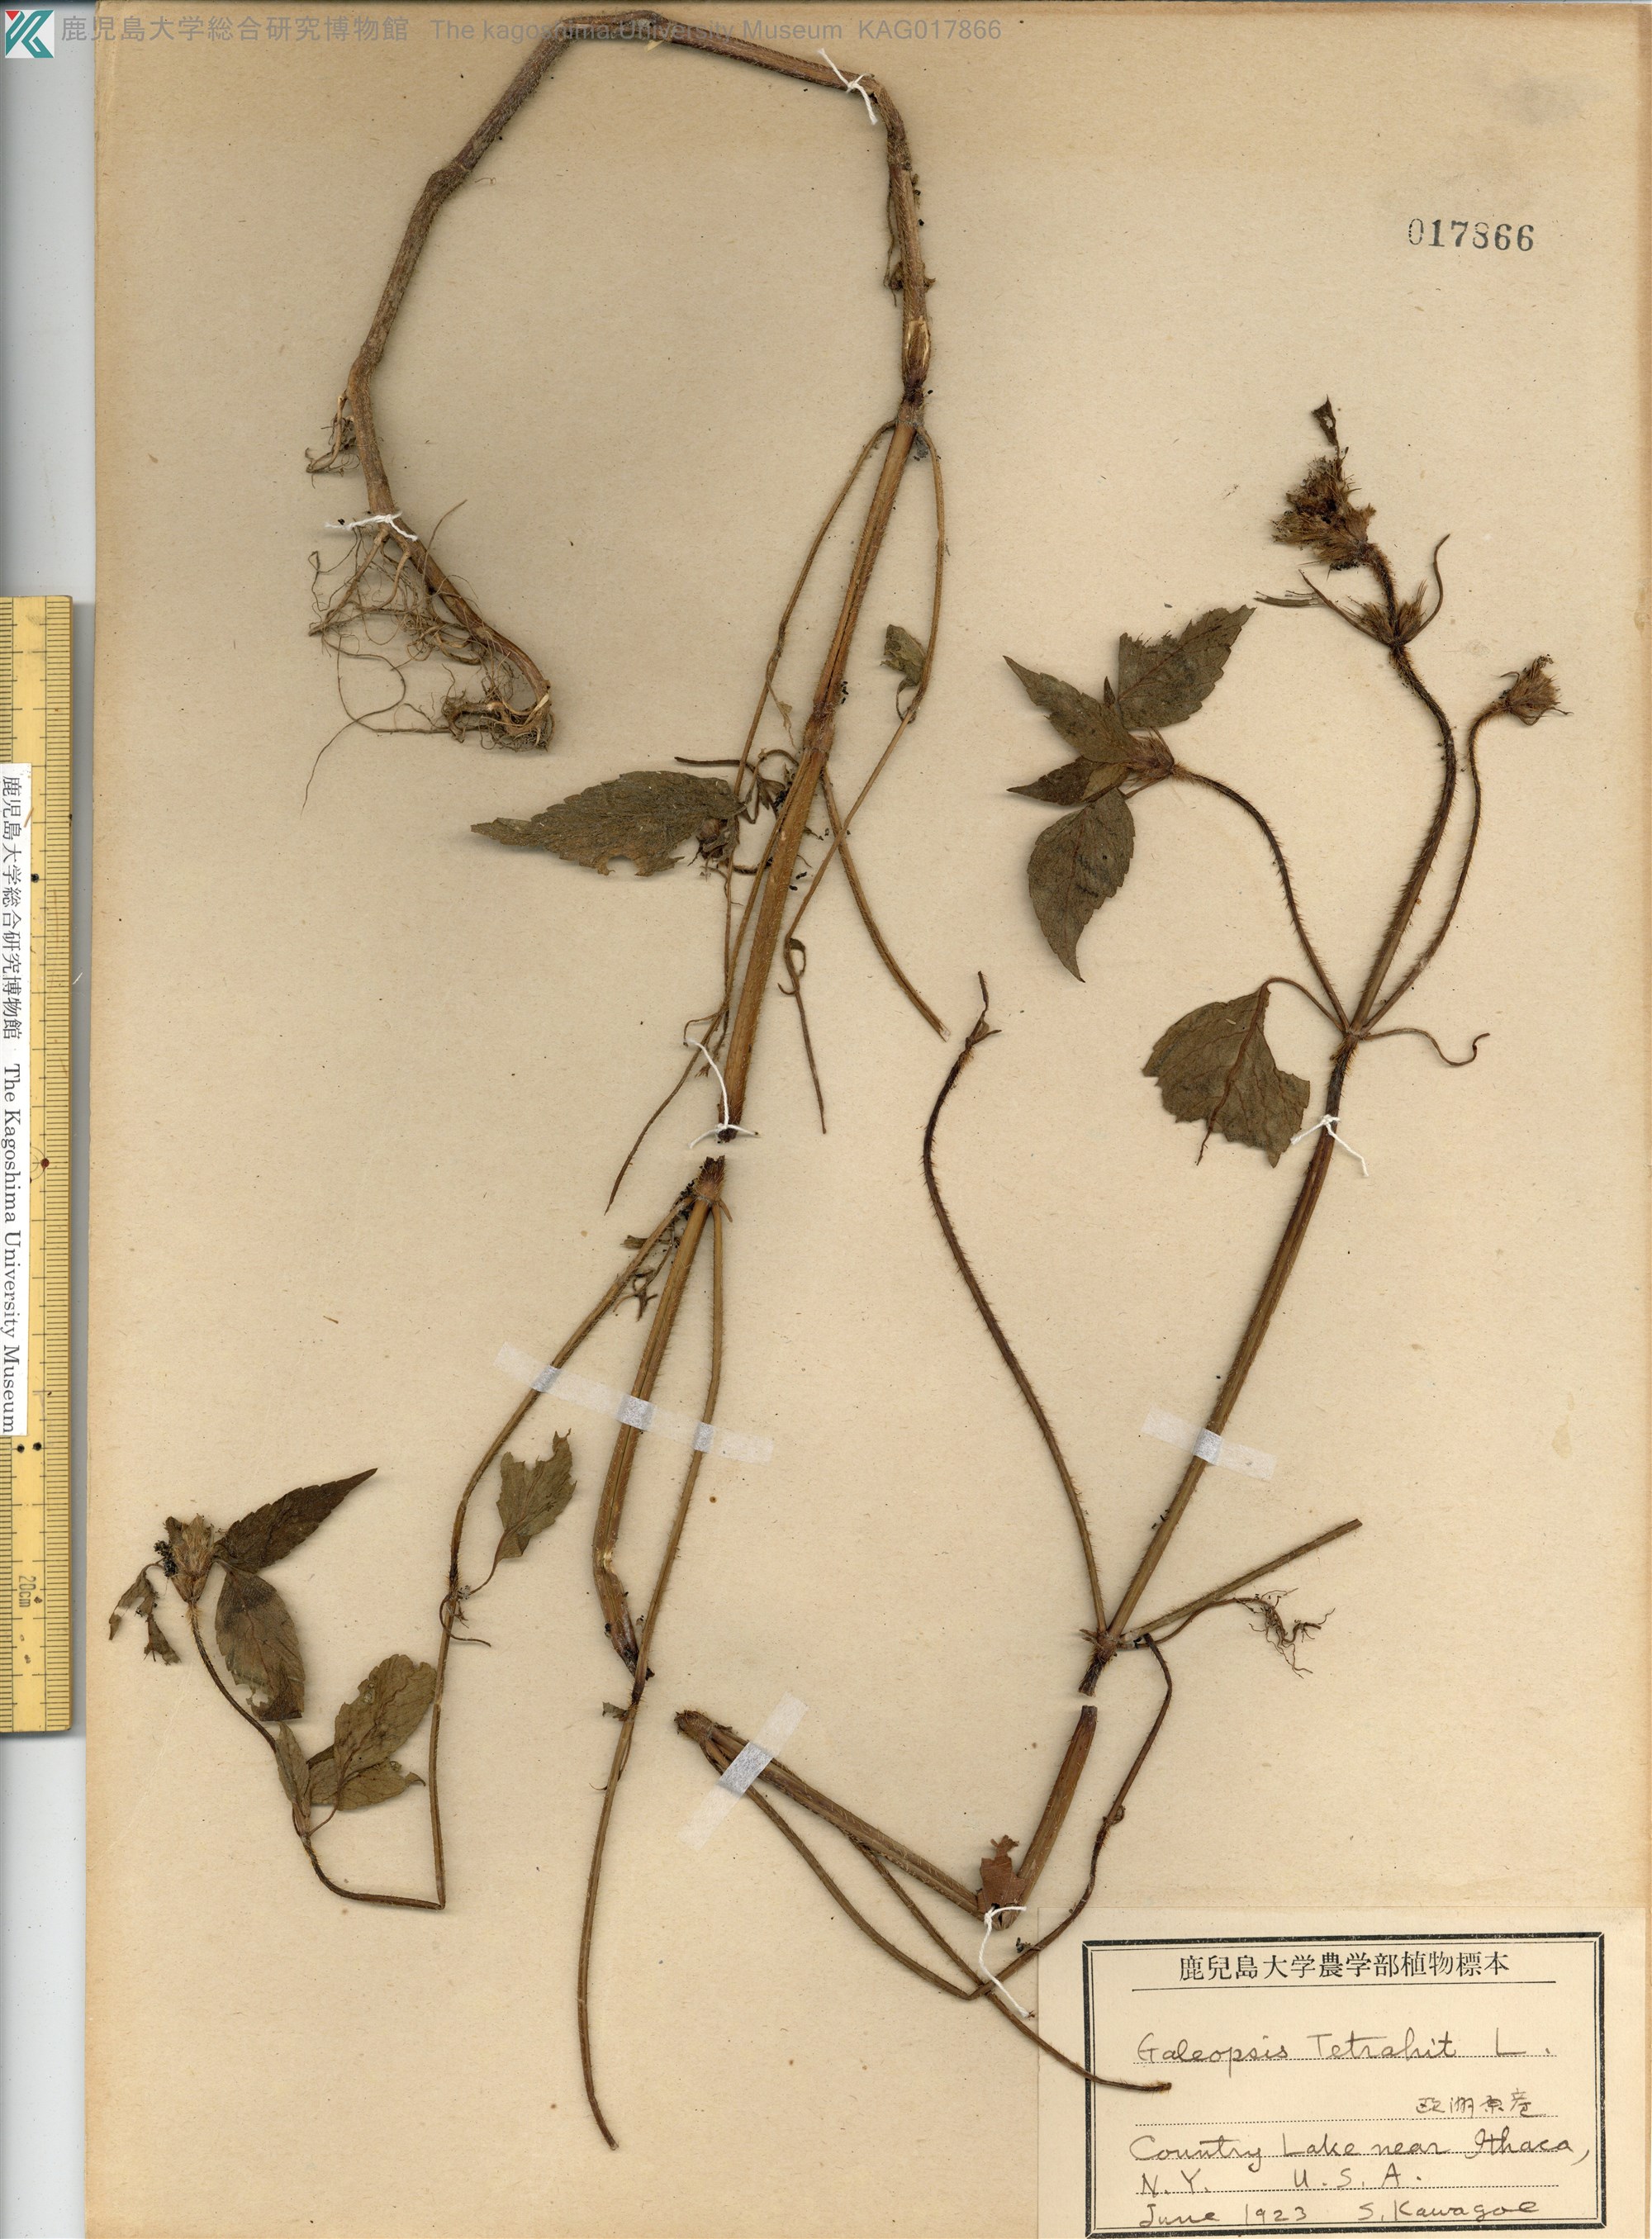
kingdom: Plantae
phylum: Tracheophyta
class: Magnoliopsida
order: Lamiales
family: Lamiaceae
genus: Galeopsis
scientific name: Galeopsis tetrahit
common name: Common hemp-nettle
